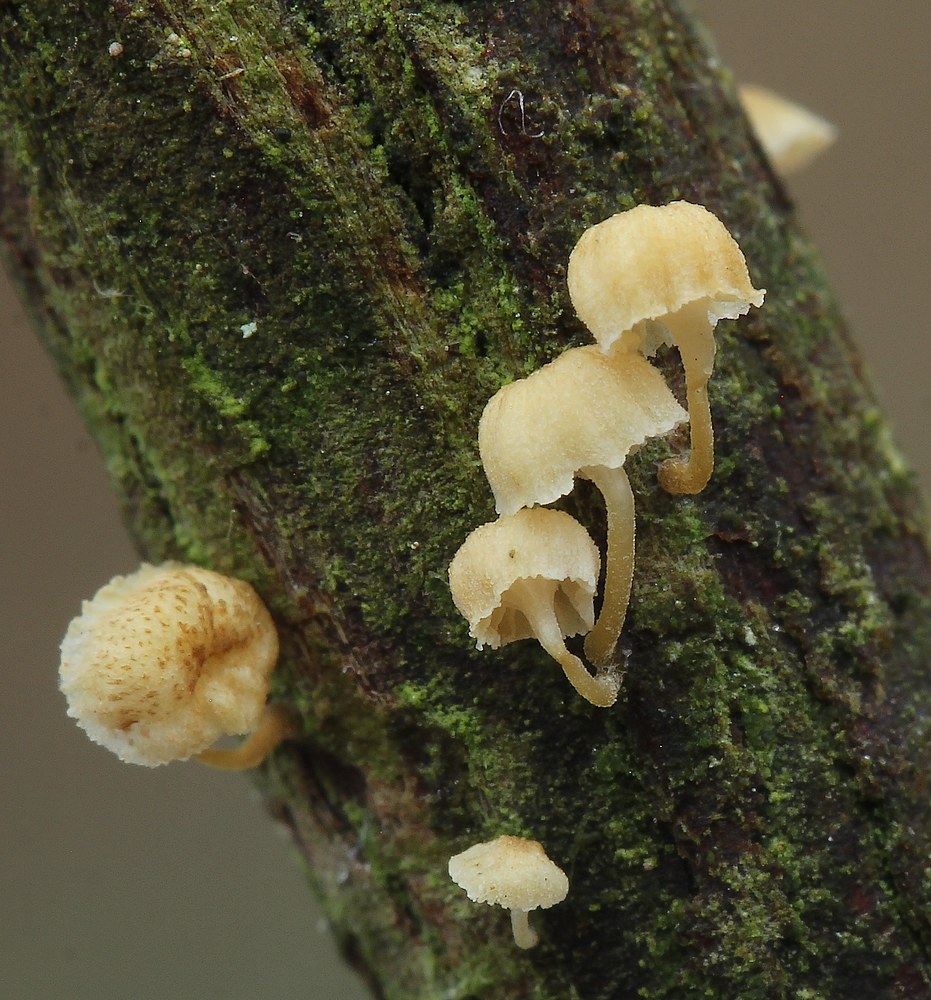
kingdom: Fungi
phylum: Basidiomycota
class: Agaricomycetes
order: Agaricales
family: Mycenaceae
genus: Mycena
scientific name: Mycena juniperina
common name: ene-Huesvamp
